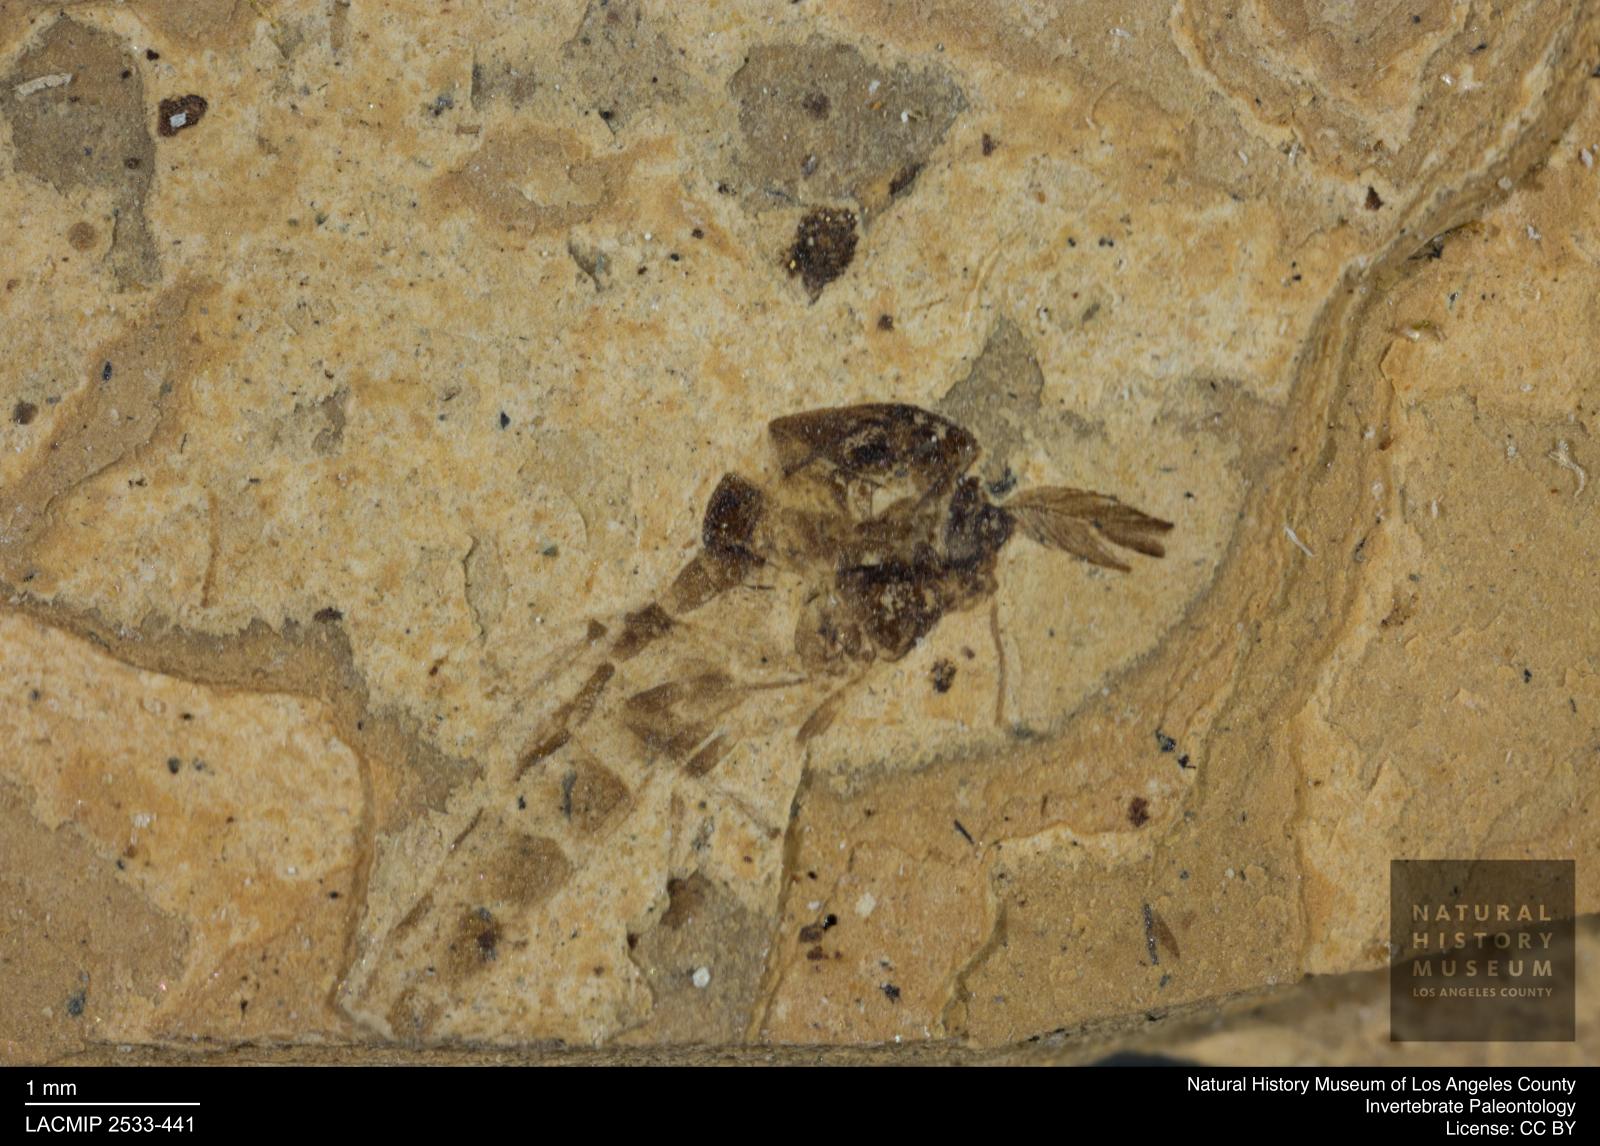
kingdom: Animalia
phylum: Arthropoda
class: Insecta
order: Diptera
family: Chironomidae
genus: Tanypus
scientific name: Tanypus thienemanni
